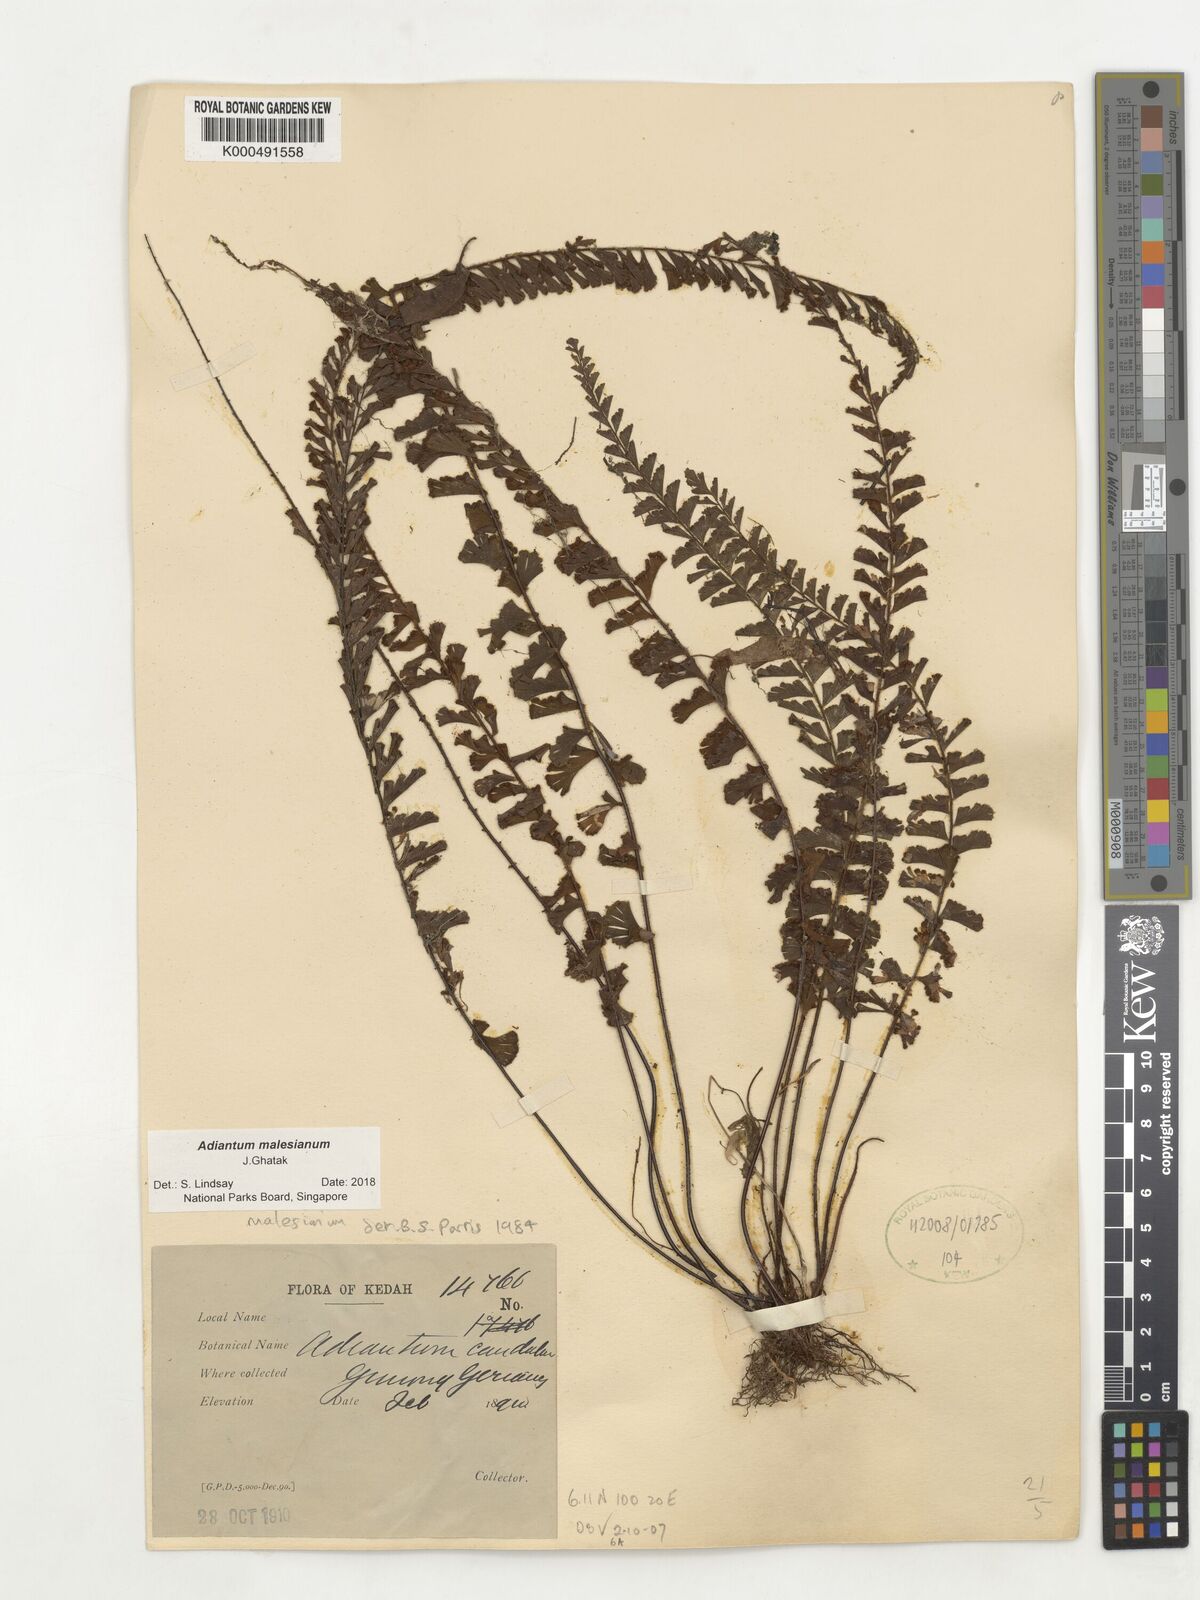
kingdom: Plantae
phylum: Tracheophyta
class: Polypodiopsida
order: Polypodiales
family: Pteridaceae
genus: Adiantum
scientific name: Adiantum ciliatum
